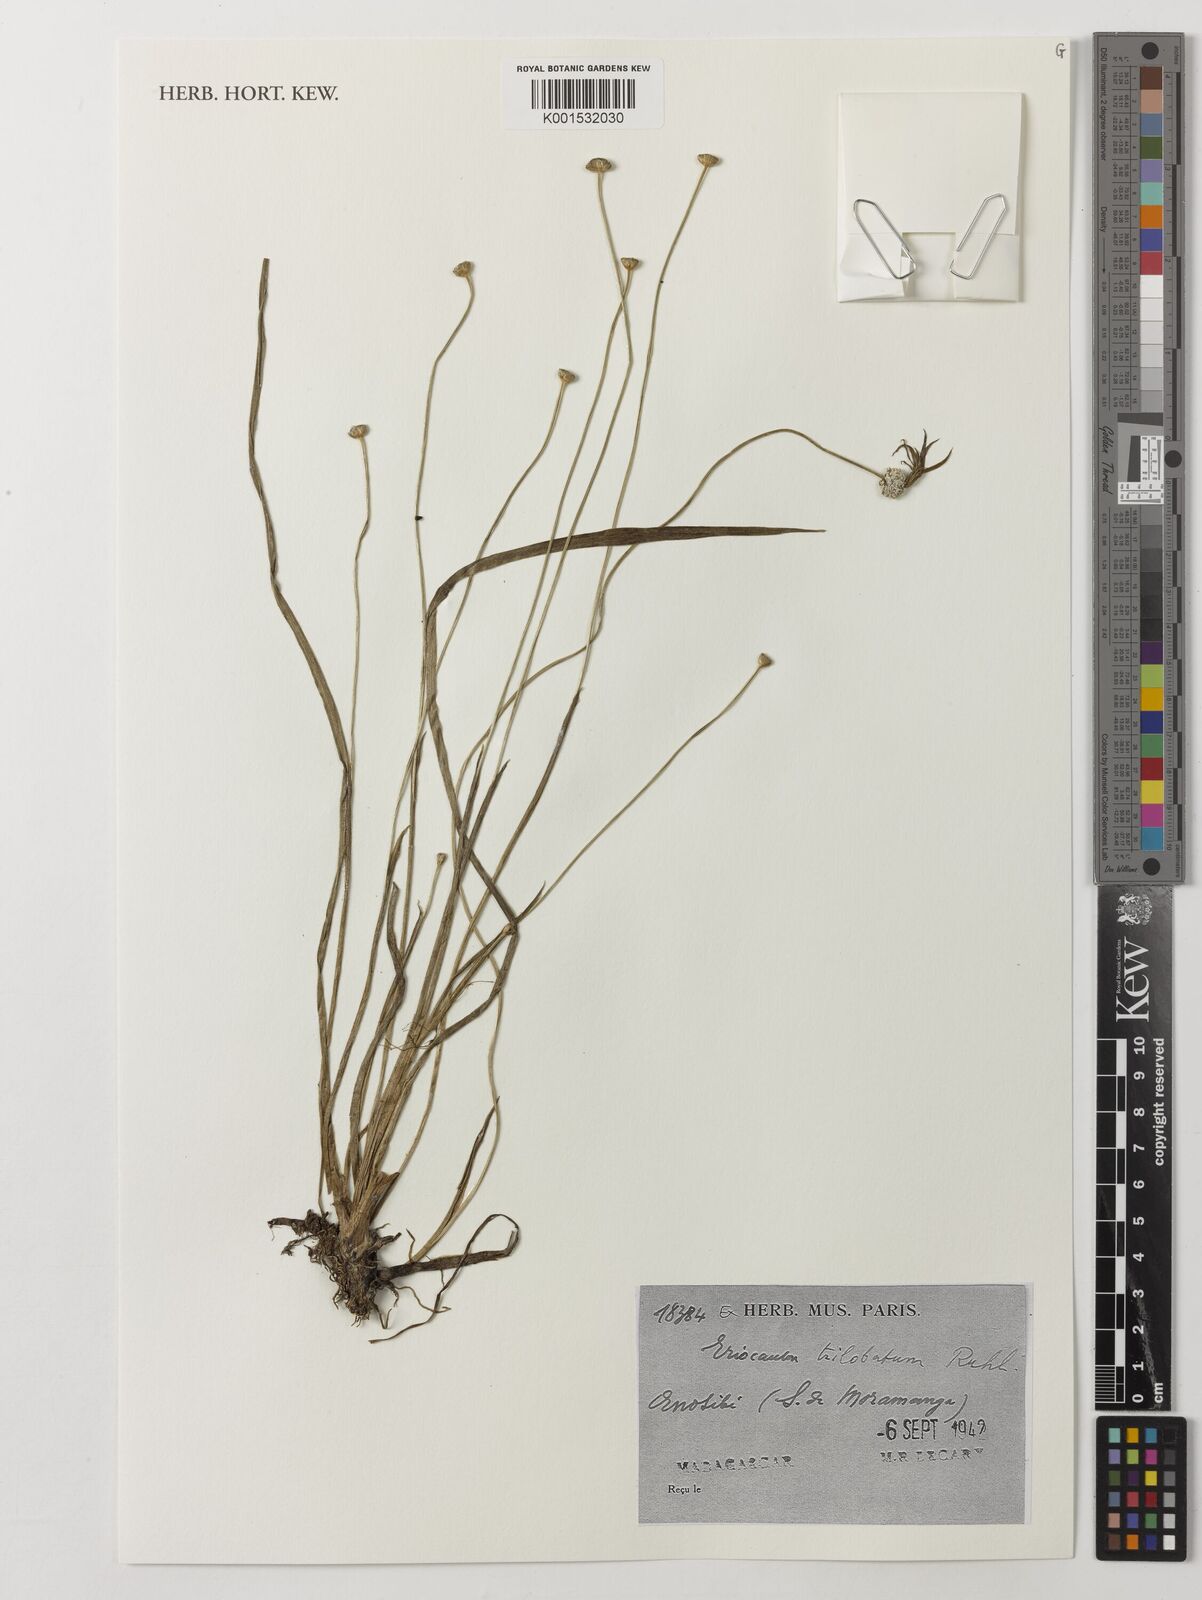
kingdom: Plantae
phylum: Tracheophyta
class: Liliopsida
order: Poales
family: Eriocaulaceae
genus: Eriocaulon
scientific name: Eriocaulon trilobatum
